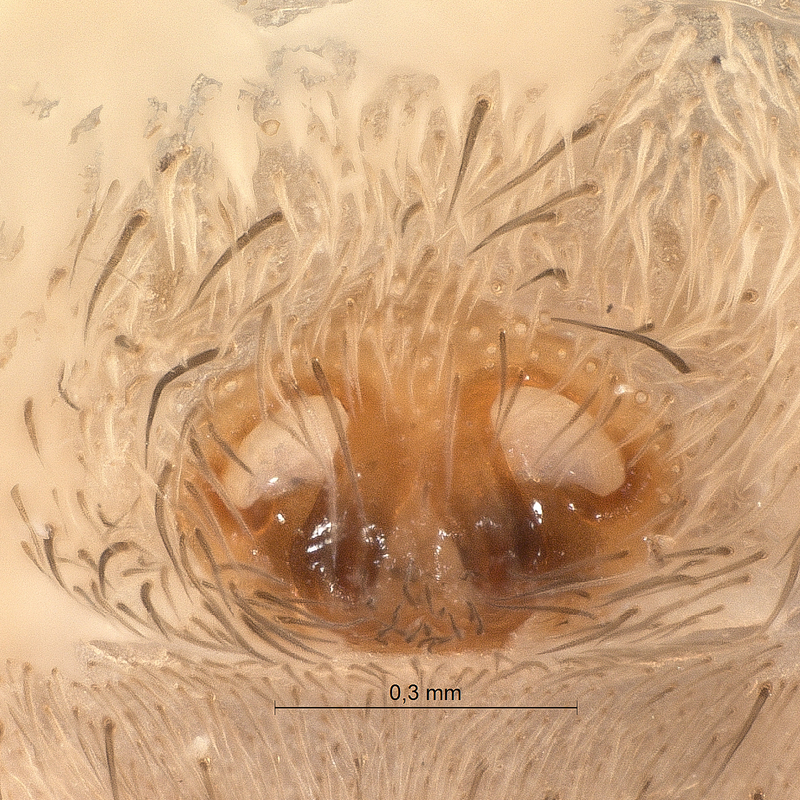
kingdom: Animalia
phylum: Arthropoda
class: Arachnida
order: Araneae
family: Lycosidae
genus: Xerolycosa
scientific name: Xerolycosa nemoralis
